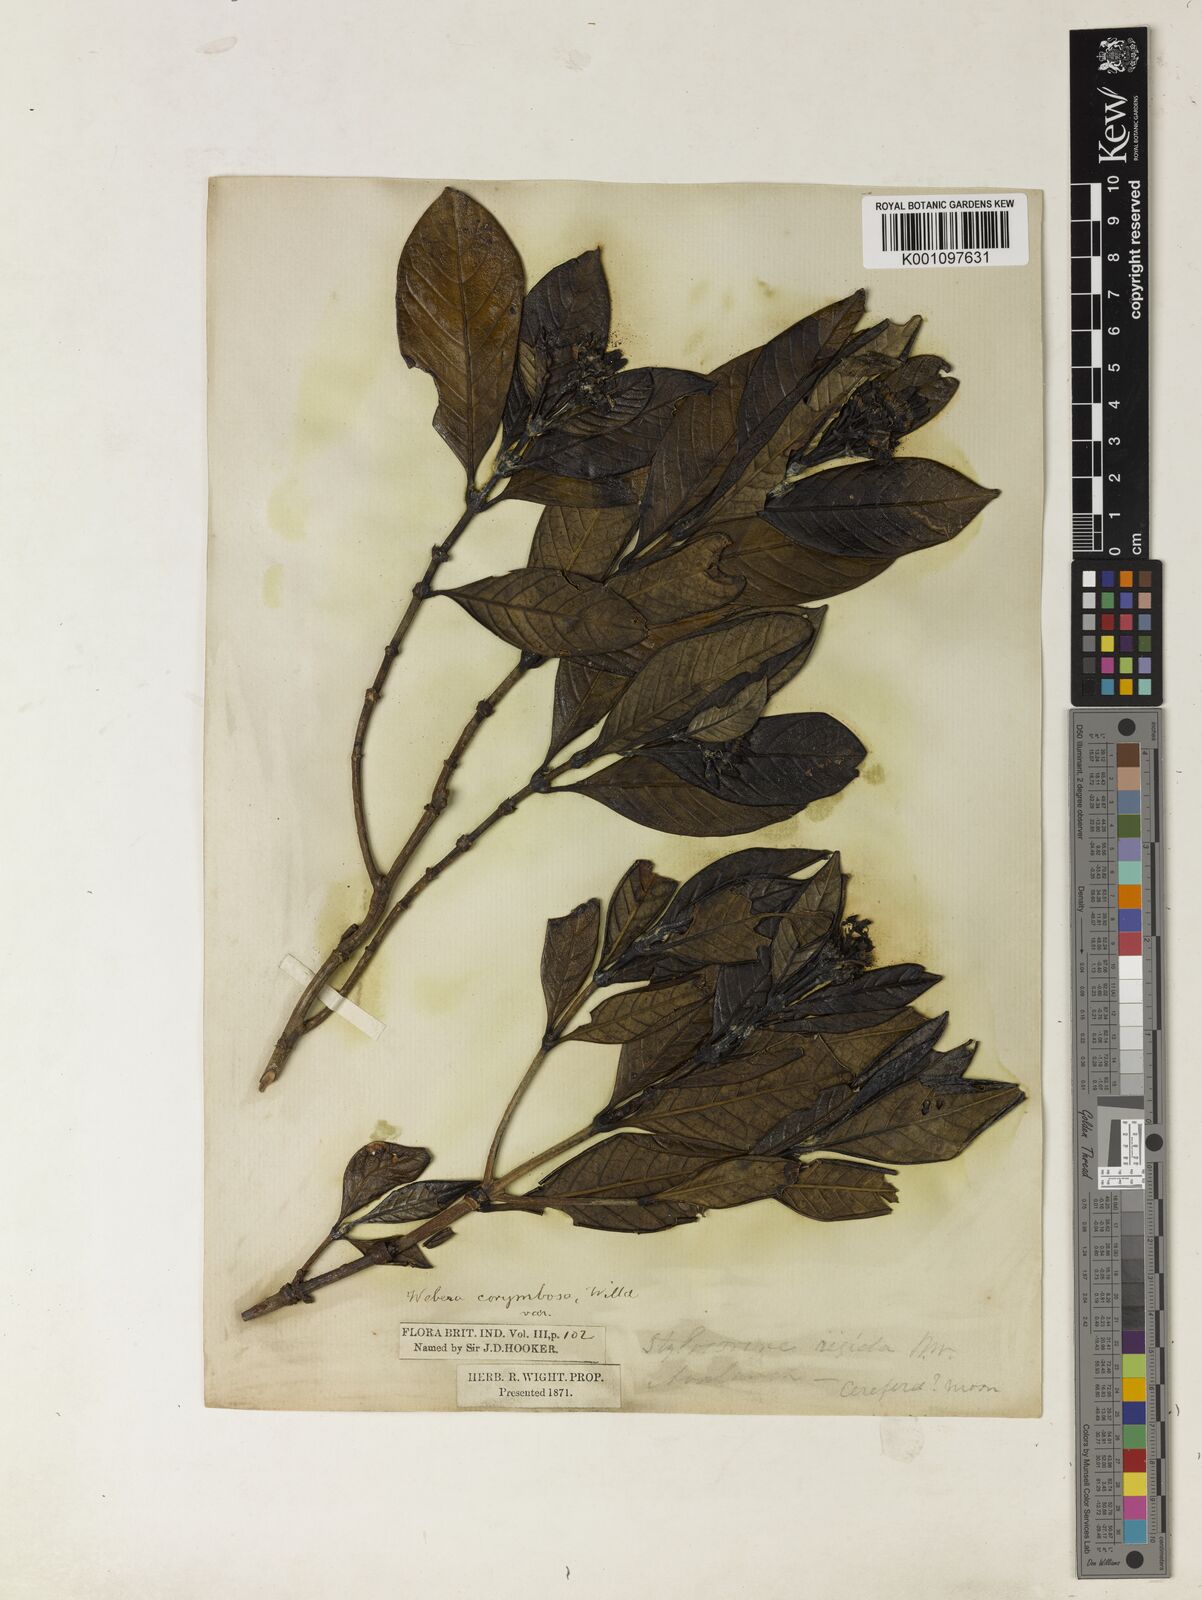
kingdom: Plantae
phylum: Tracheophyta
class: Magnoliopsida
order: Gentianales
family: Rubiaceae
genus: Tarenna
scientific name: Tarenna
